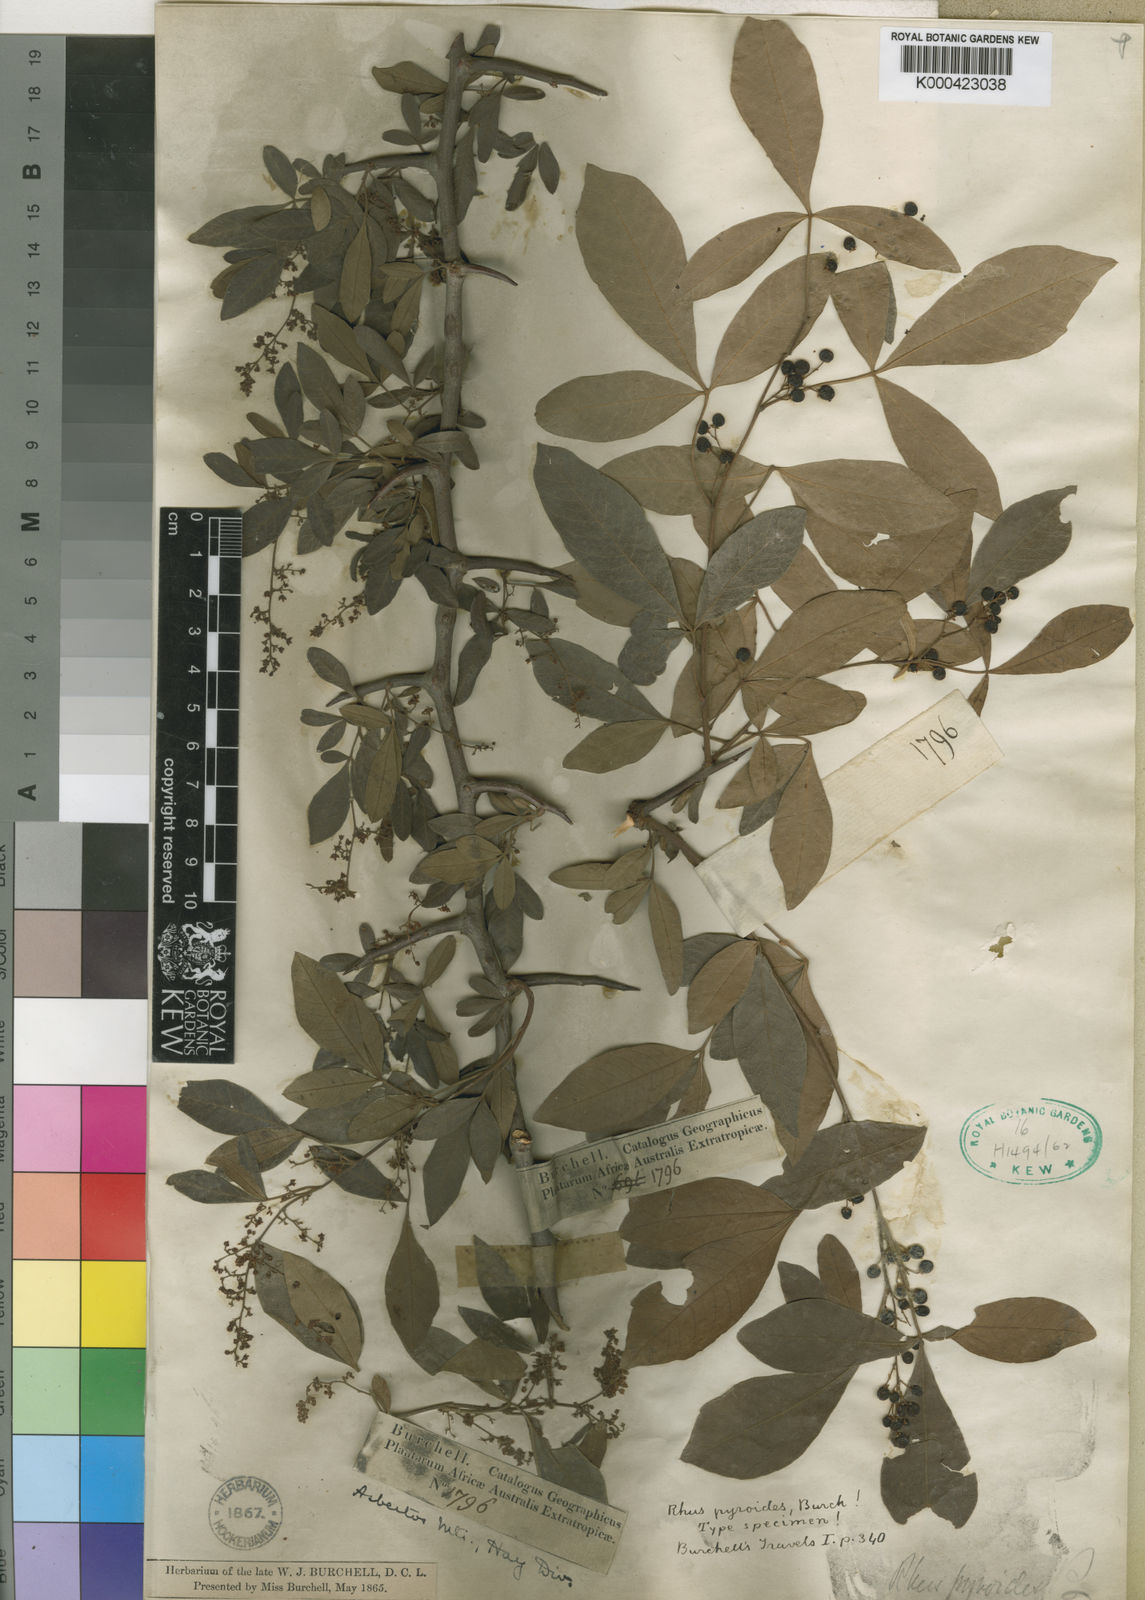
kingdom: Plantae
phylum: Tracheophyta
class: Magnoliopsida
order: Sapindales
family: Anacardiaceae
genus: Searsia
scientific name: Searsia pyroides
